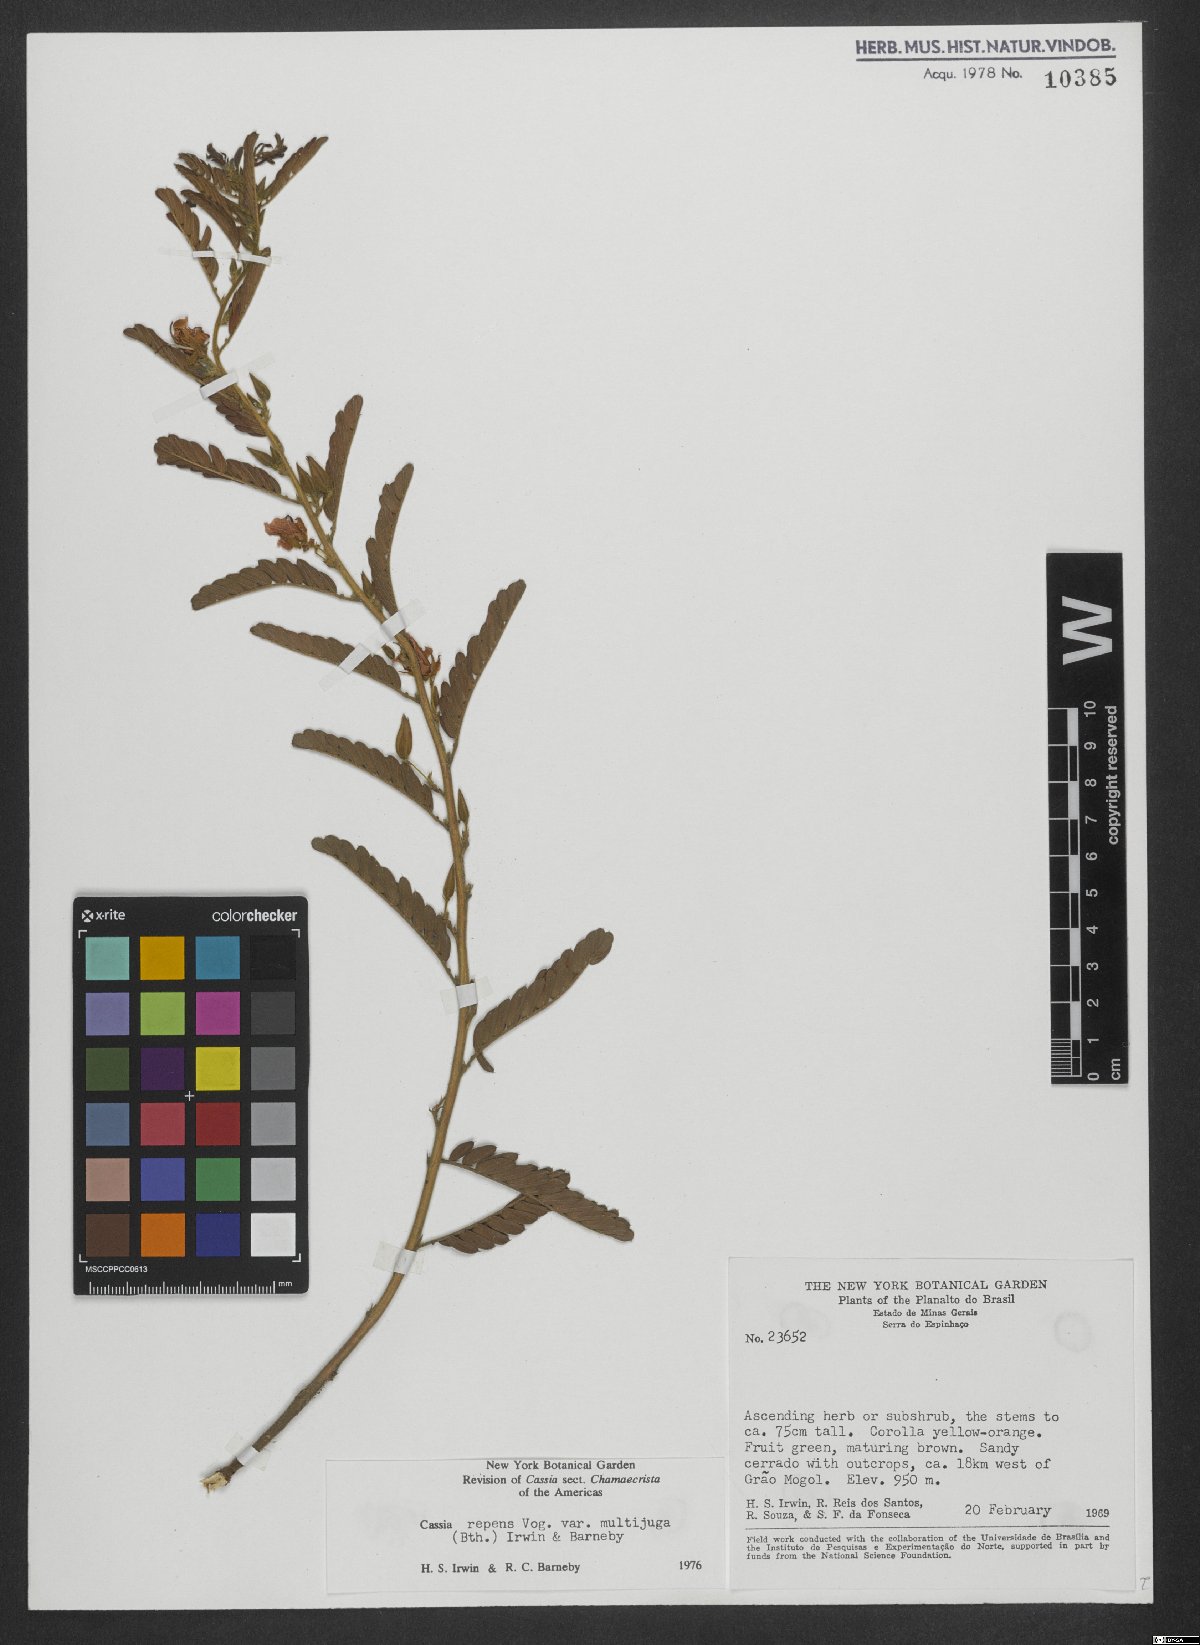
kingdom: Plantae
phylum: Tracheophyta
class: Magnoliopsida
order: Fabales
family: Fabaceae
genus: Chamaecrista
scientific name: Chamaecrista repens
